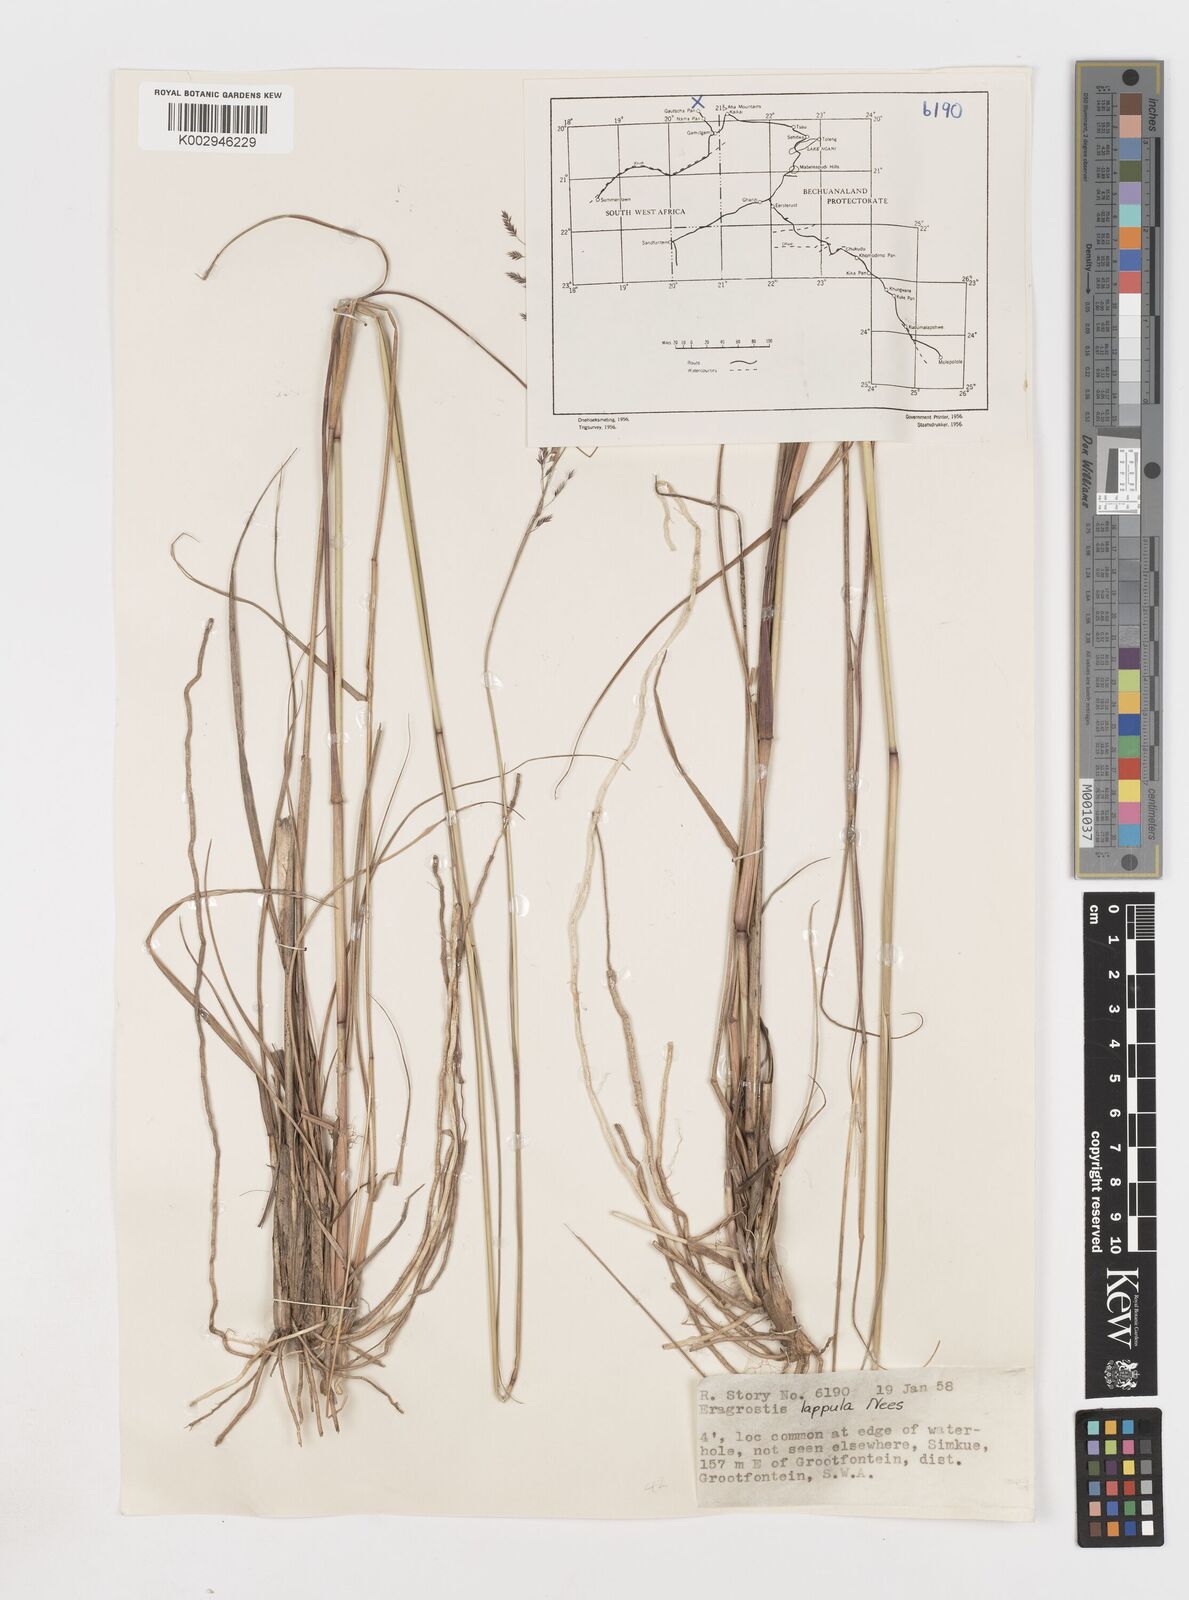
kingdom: Plantae
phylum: Tracheophyta
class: Liliopsida
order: Poales
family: Poaceae
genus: Eragrostis
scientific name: Eragrostis lappula
